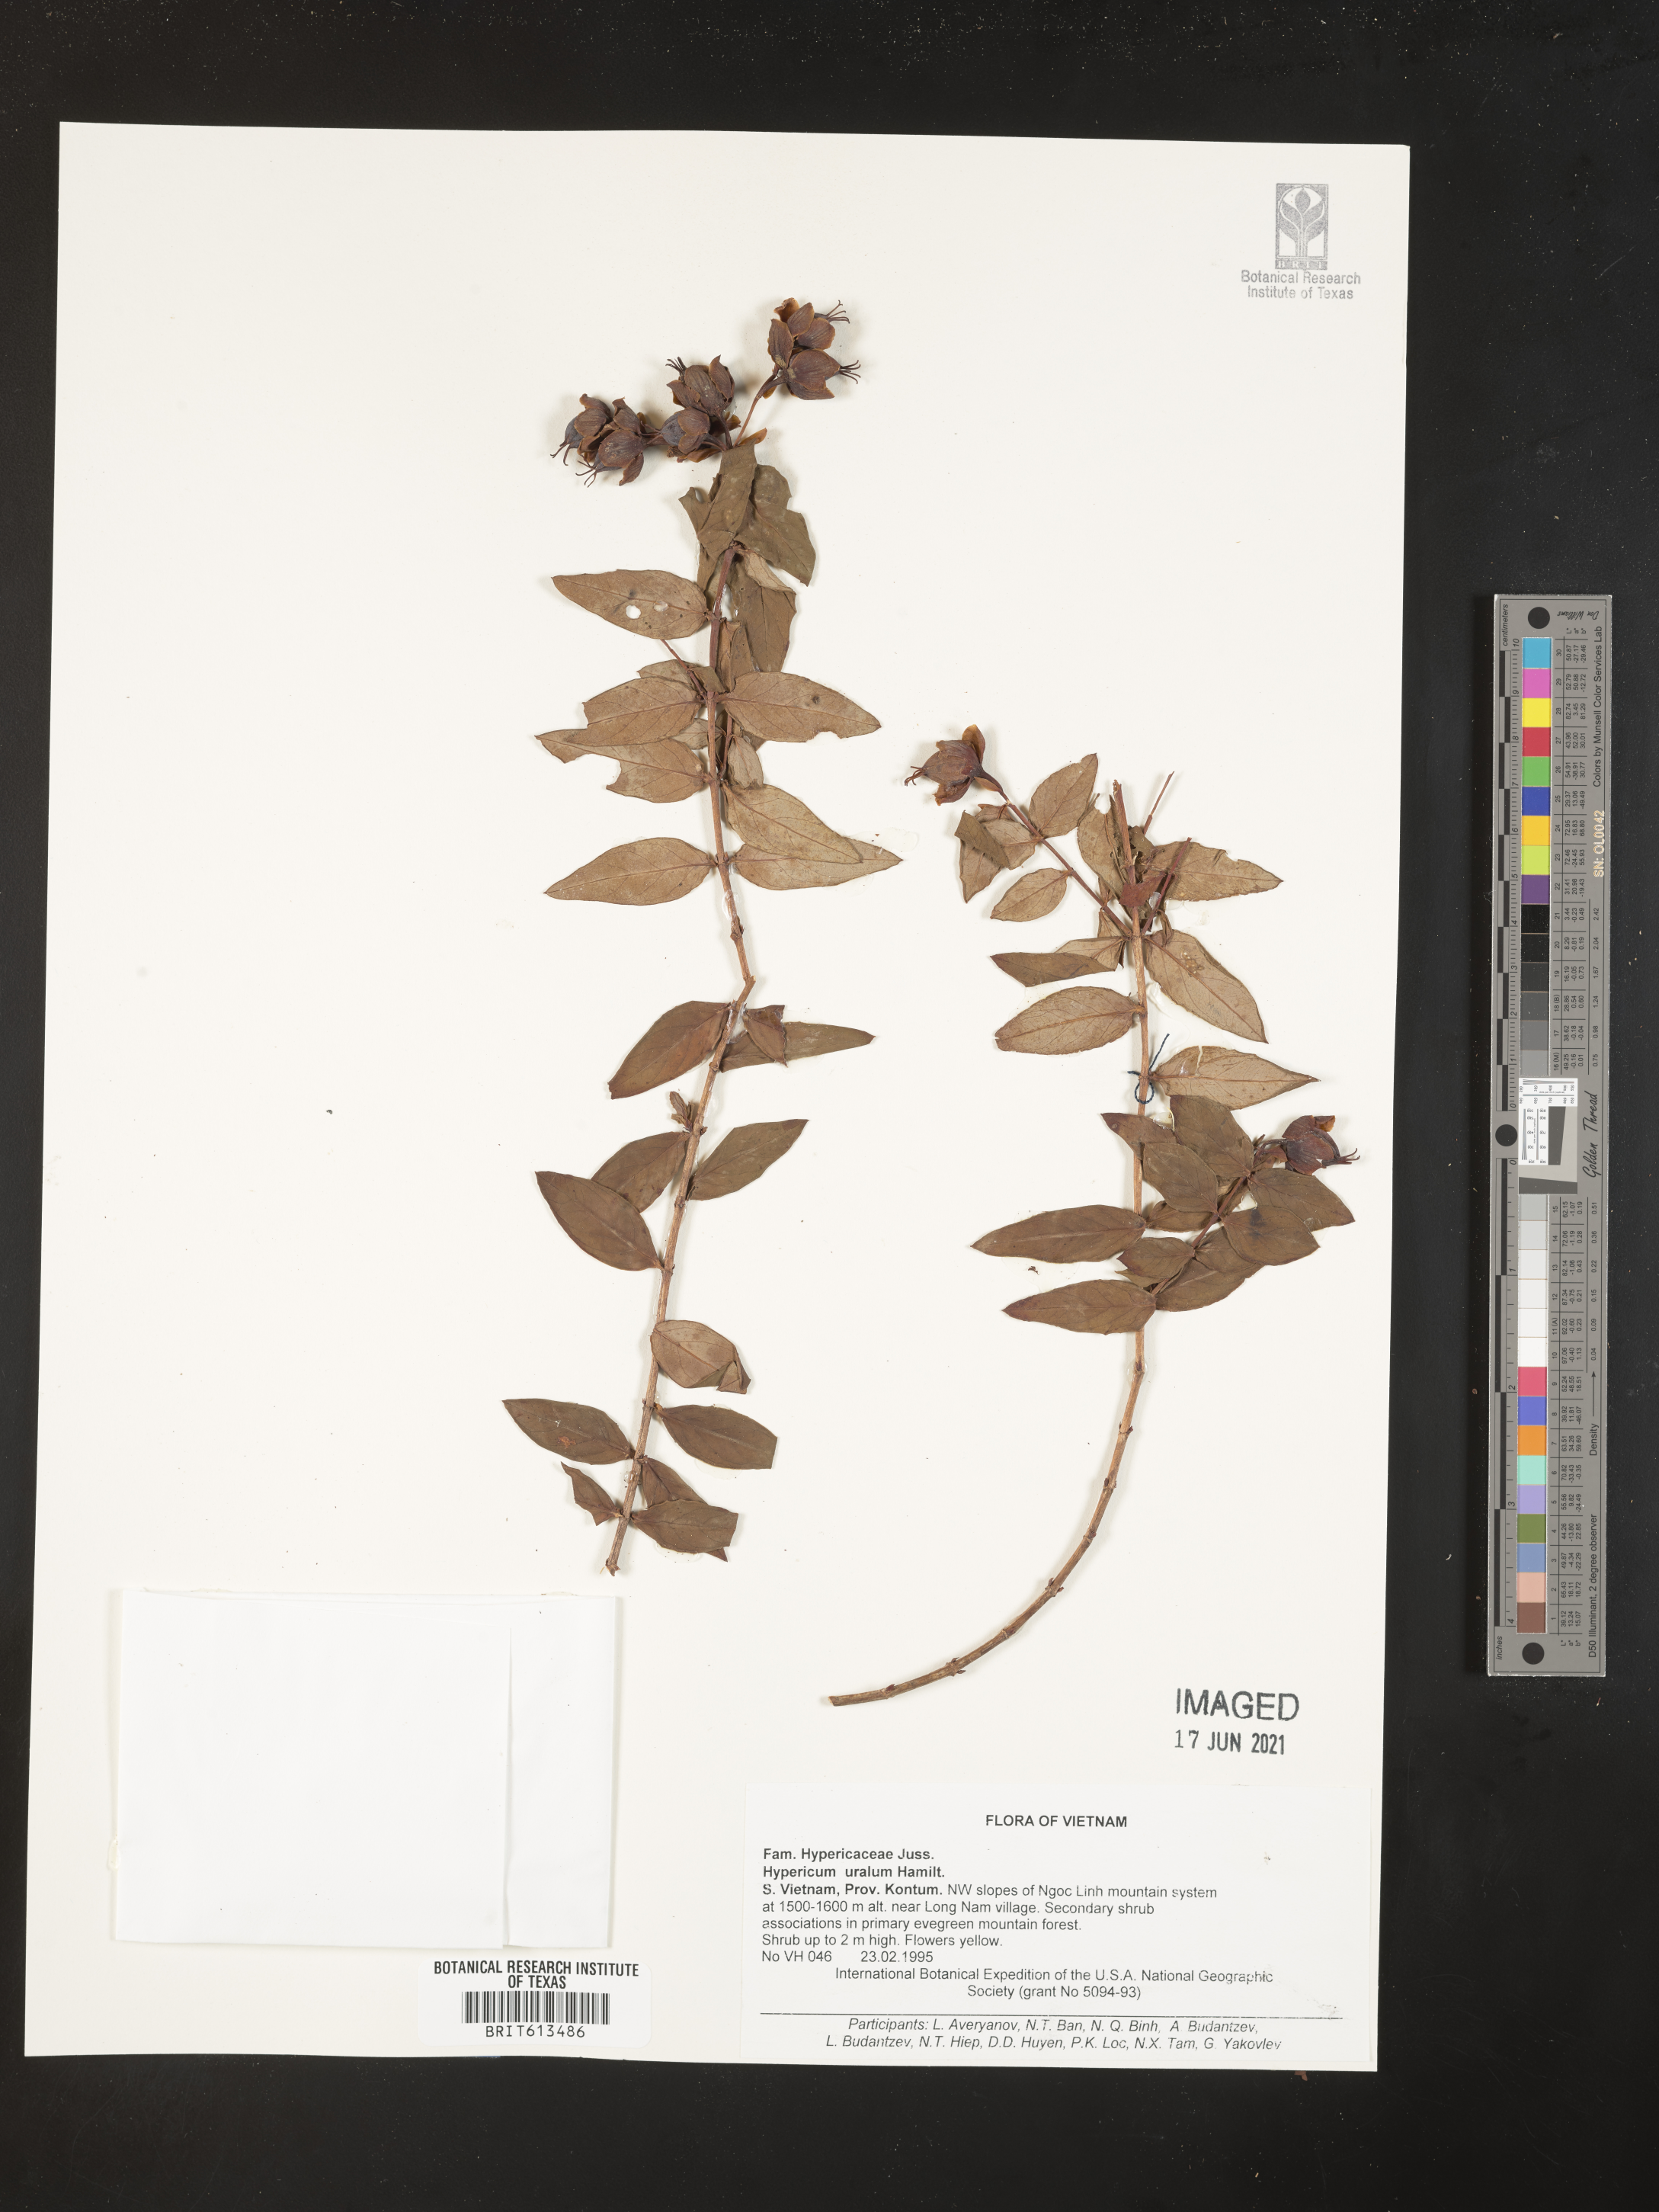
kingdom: Plantae
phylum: Tracheophyta
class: Magnoliopsida
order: Malpighiales
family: Hypericaceae
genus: Hypericum
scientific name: Hypericum uralum
